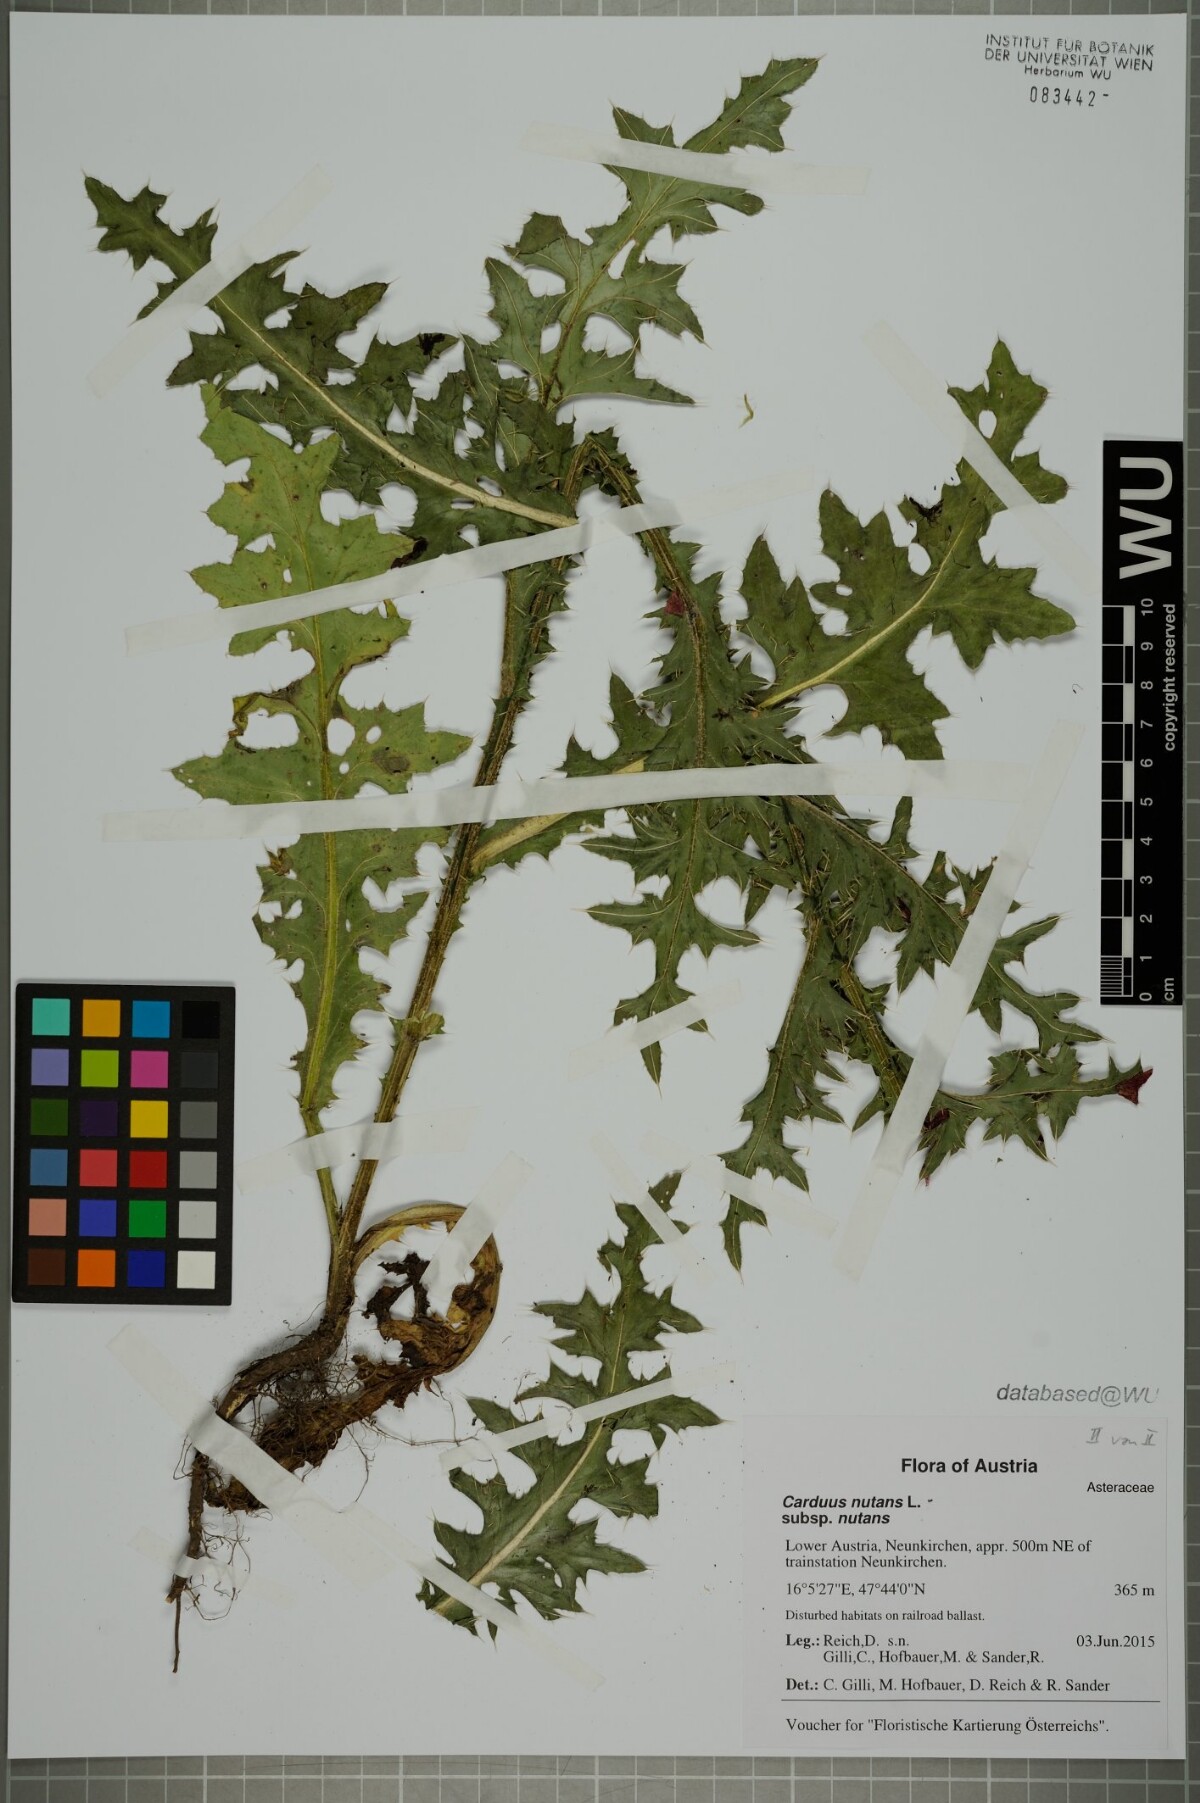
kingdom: Plantae
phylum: Tracheophyta
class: Magnoliopsida
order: Asterales
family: Asteraceae
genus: Carduus
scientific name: Carduus nutans
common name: Musk thistle
